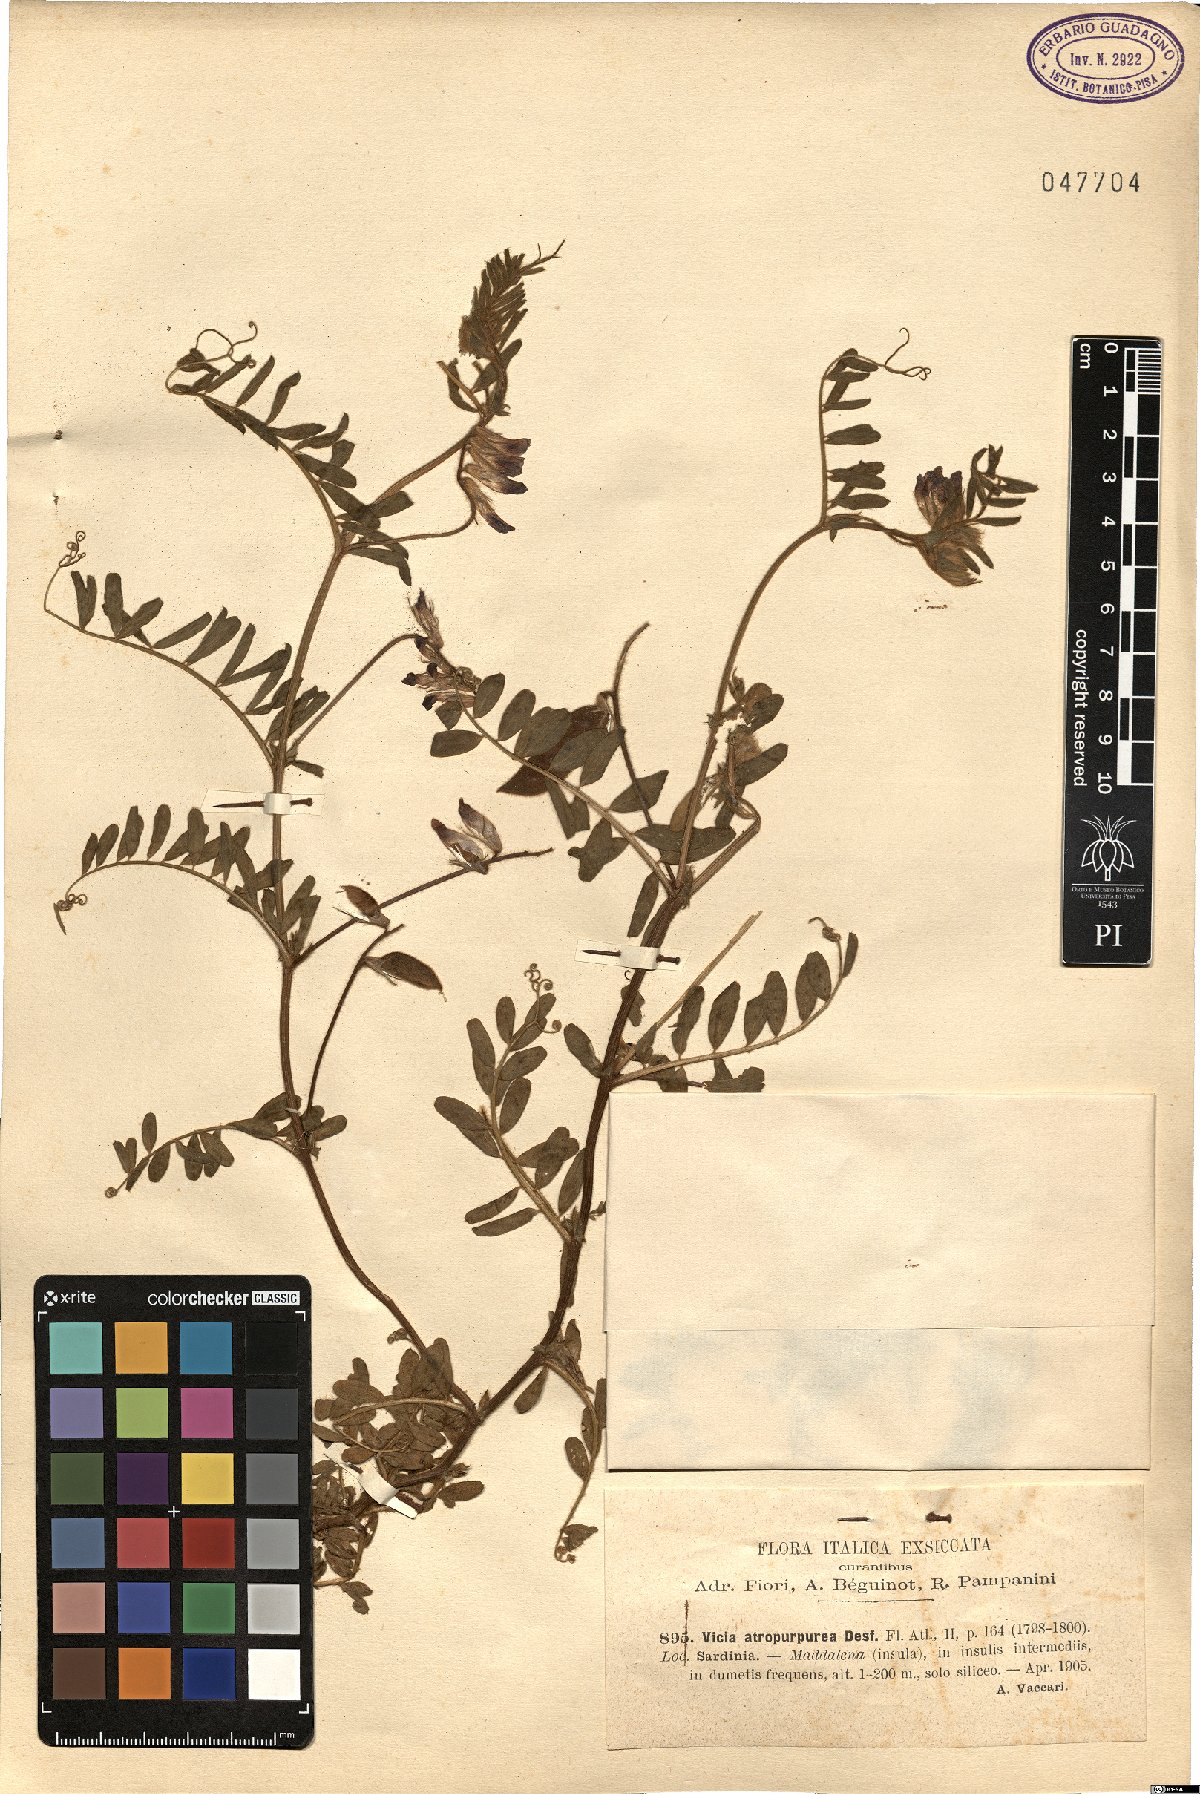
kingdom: Plantae
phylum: Tracheophyta
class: Magnoliopsida
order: Fabales
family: Fabaceae
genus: Vicia
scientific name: Vicia benghalensis
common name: Purple vetch
